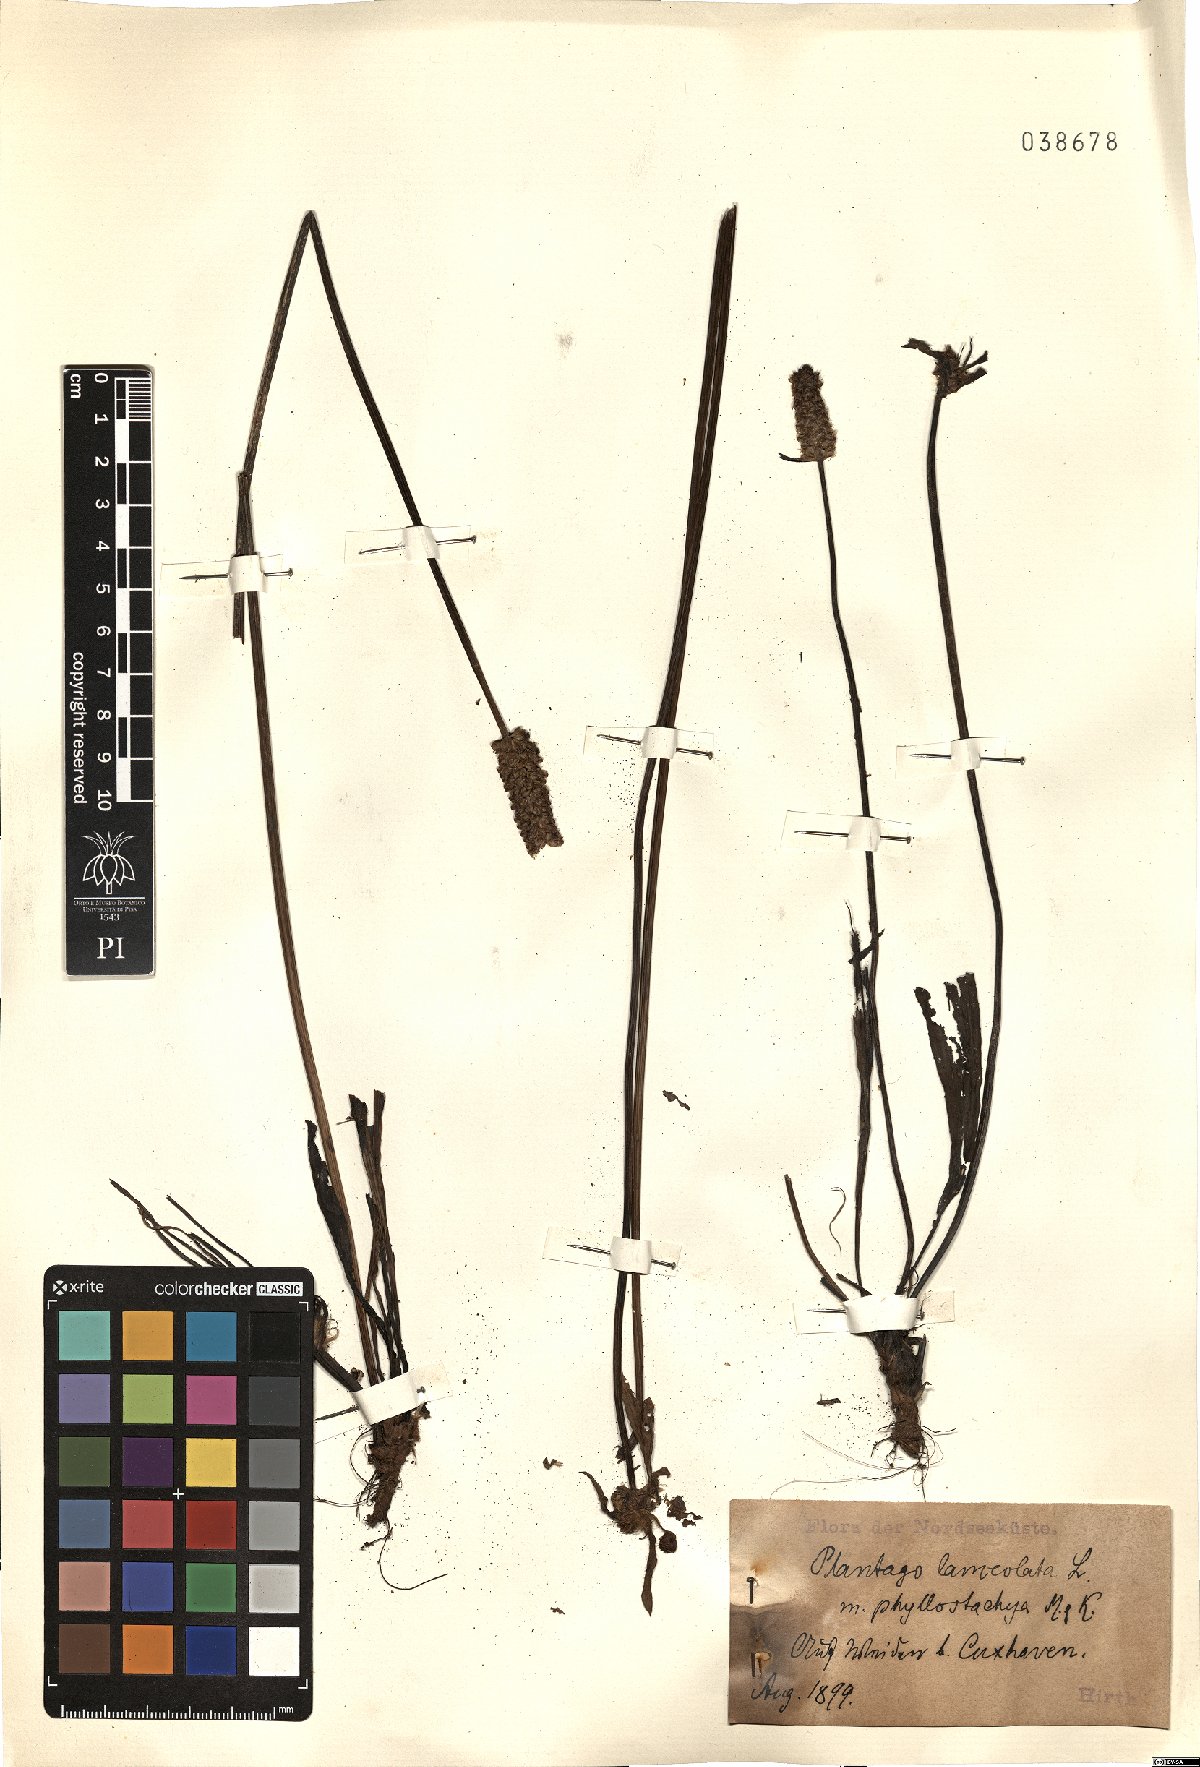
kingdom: Plantae
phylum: Tracheophyta
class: Magnoliopsida
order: Lamiales
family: Plantaginaceae
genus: Plantago
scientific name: Plantago lanceolata
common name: Ribwort plantain
